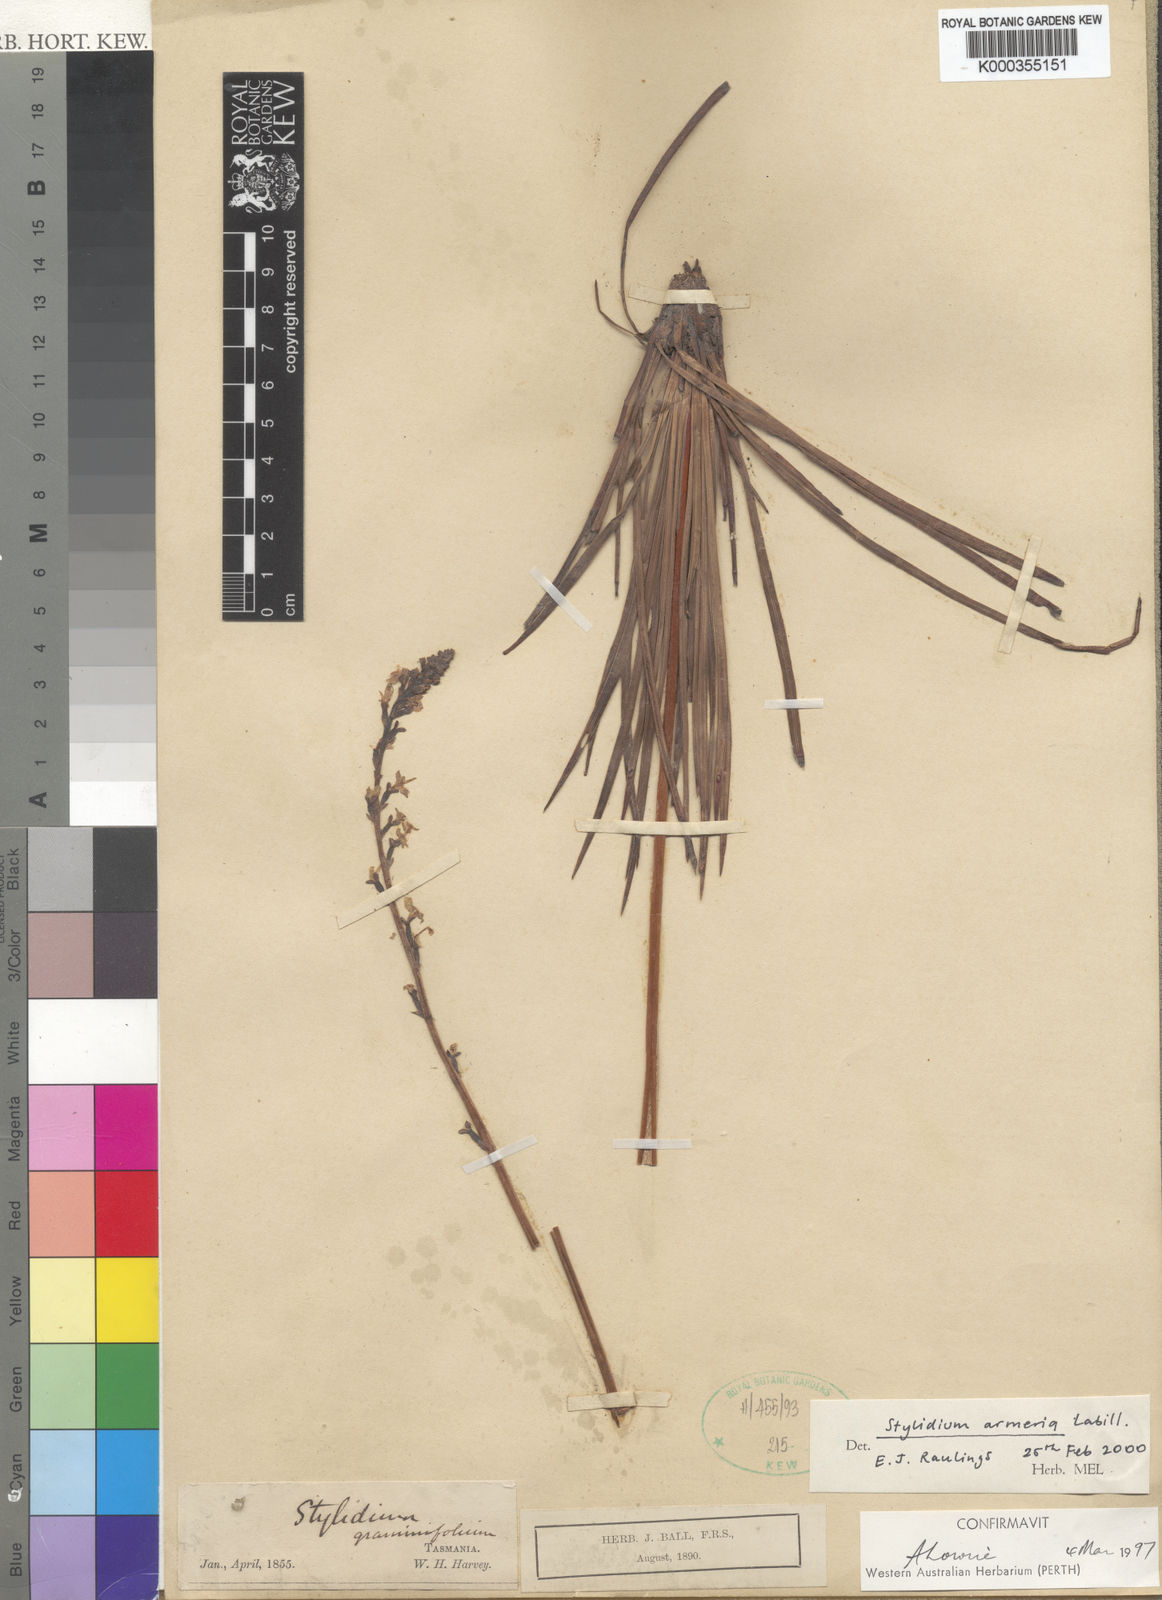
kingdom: Plantae
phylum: Tracheophyta
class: Magnoliopsida
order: Asterales
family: Stylidiaceae
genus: Stylidium
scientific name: Stylidium armeria
